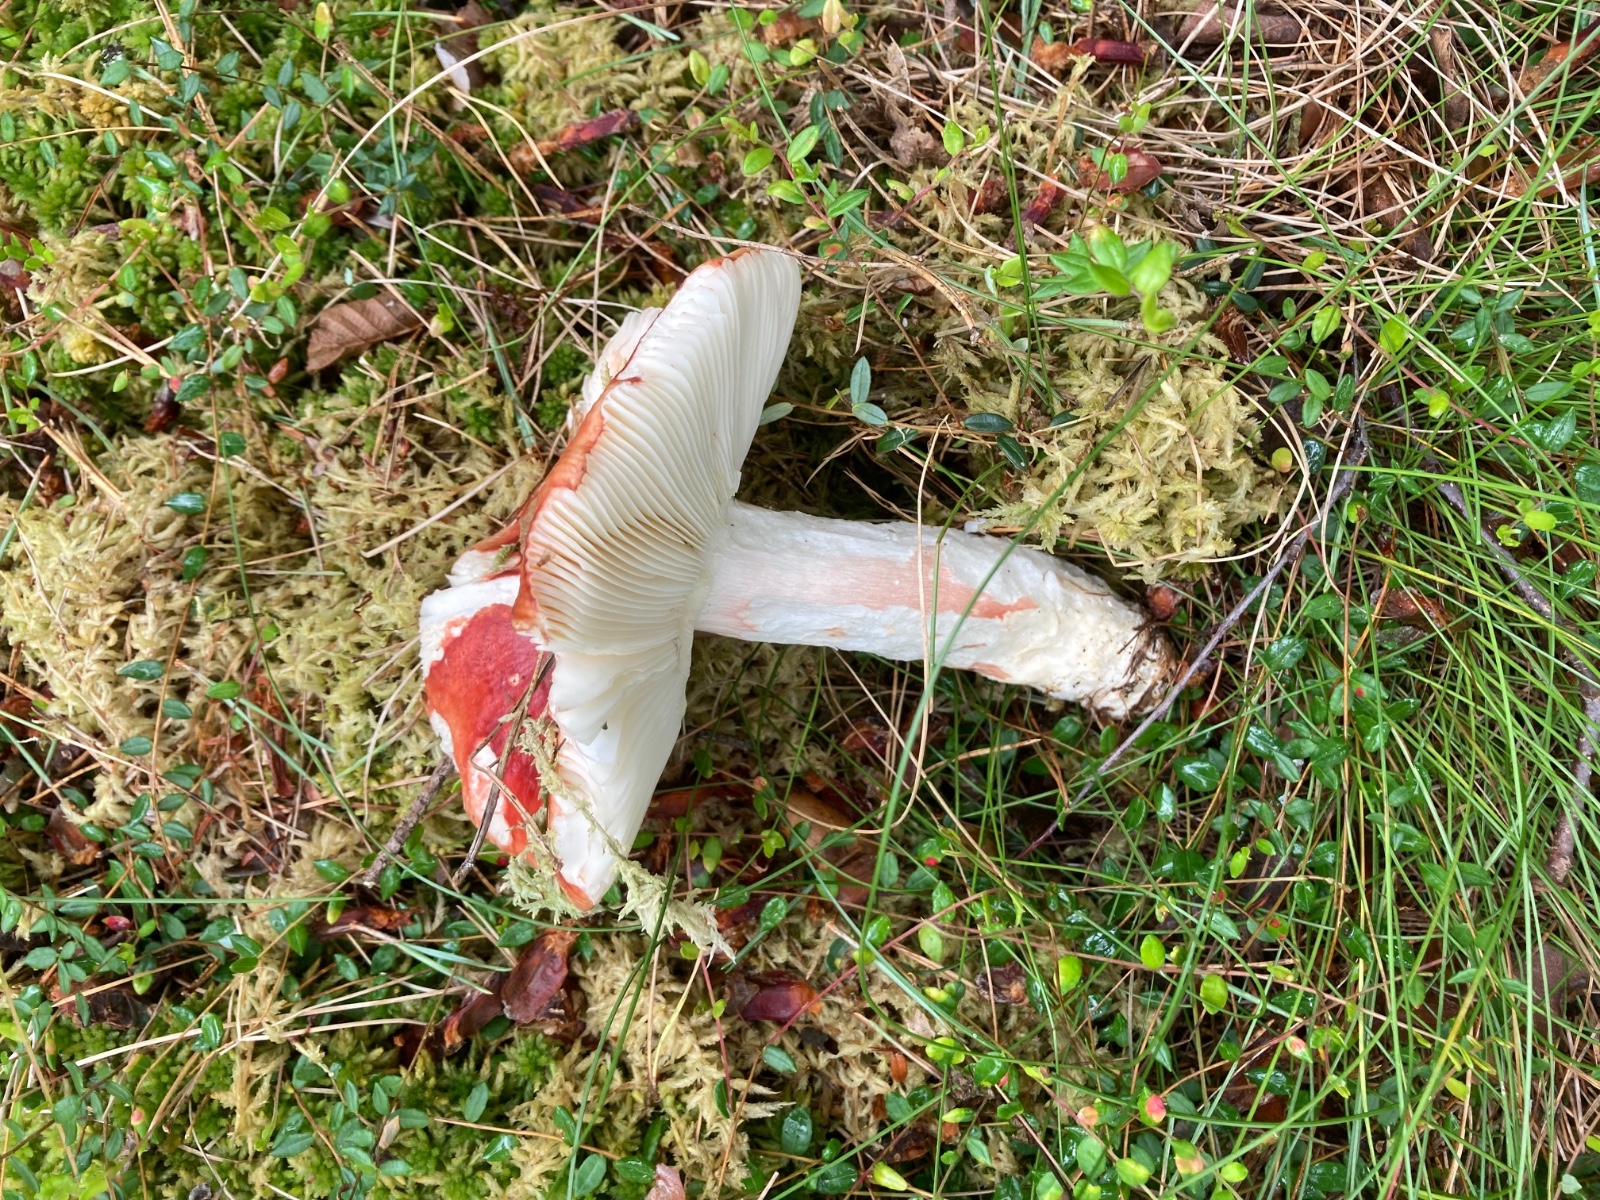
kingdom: Fungi
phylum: Basidiomycota
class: Agaricomycetes
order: Russulales
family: Russulaceae
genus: Russula
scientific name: Russula paludosa
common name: prægtig skørhat
